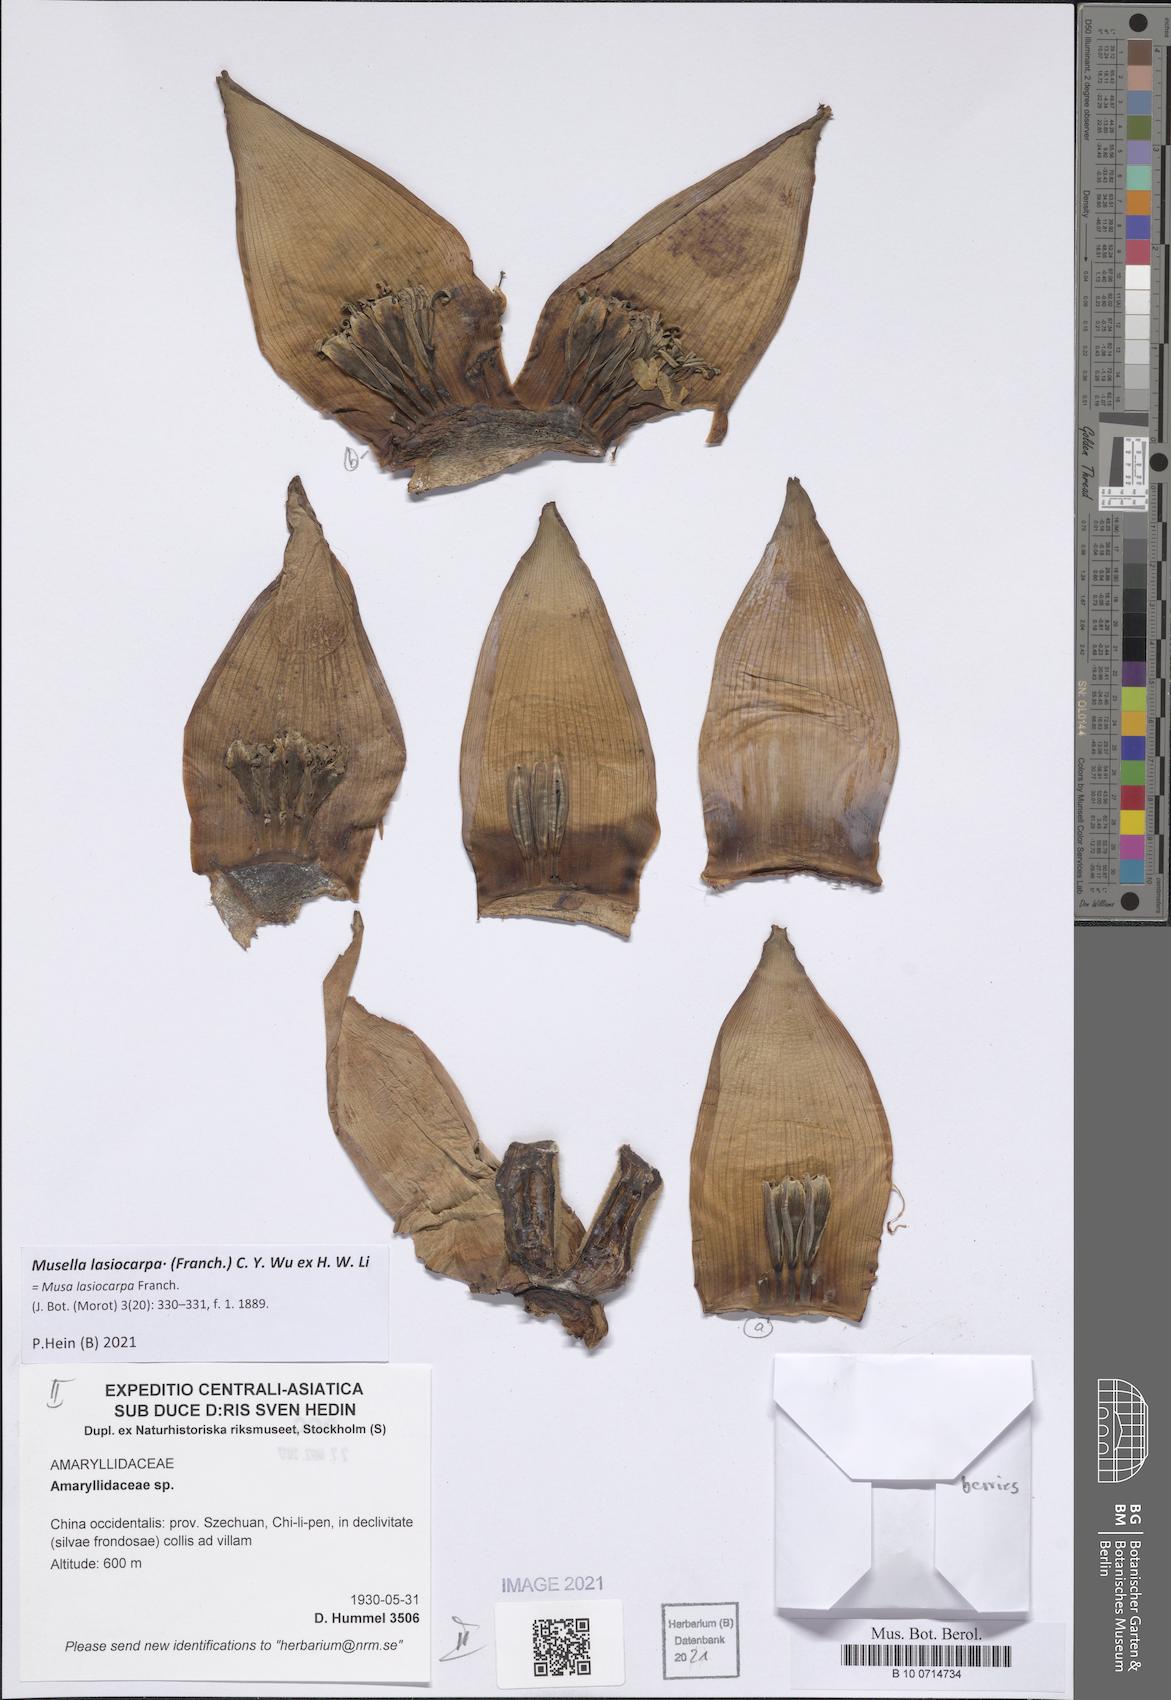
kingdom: Plantae
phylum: Tracheophyta
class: Liliopsida
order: Zingiberales
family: Musaceae
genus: Musella
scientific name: Musella lasiocarpa
